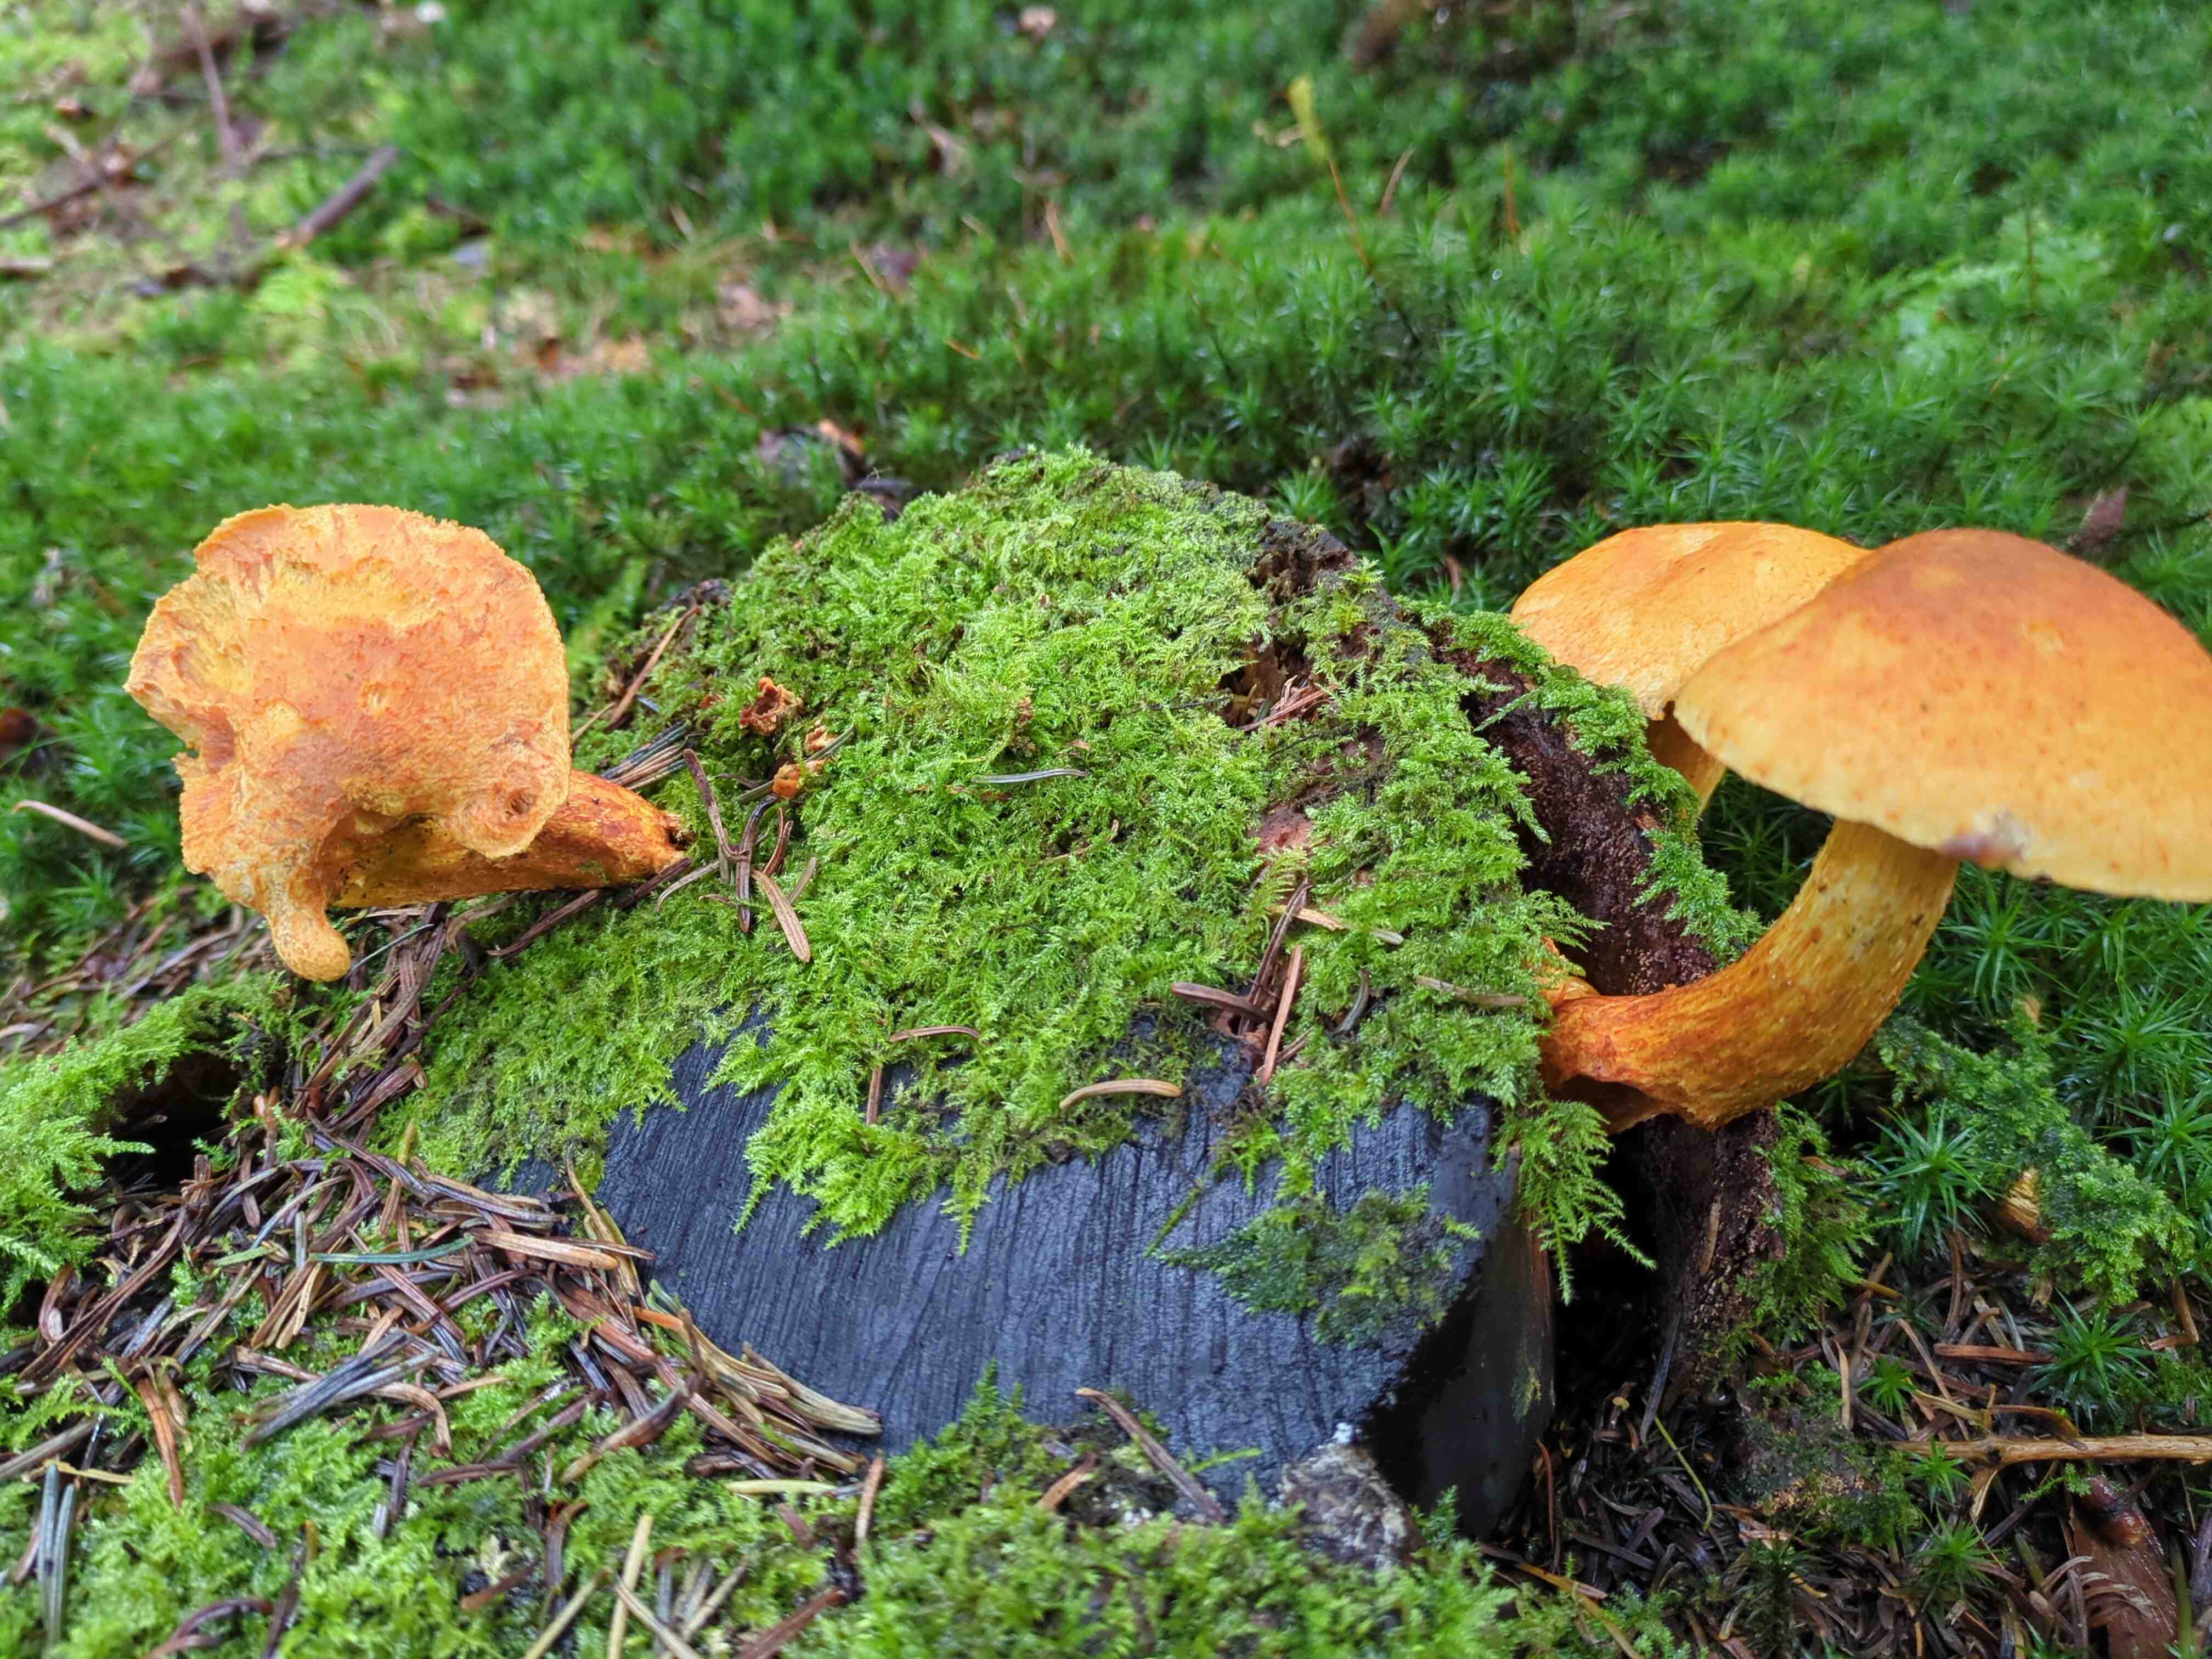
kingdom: Fungi
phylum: Basidiomycota
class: Agaricomycetes
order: Agaricales
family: Hymenogastraceae
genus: Gymnopilus
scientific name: Gymnopilus penetrans
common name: plettet flammehat
